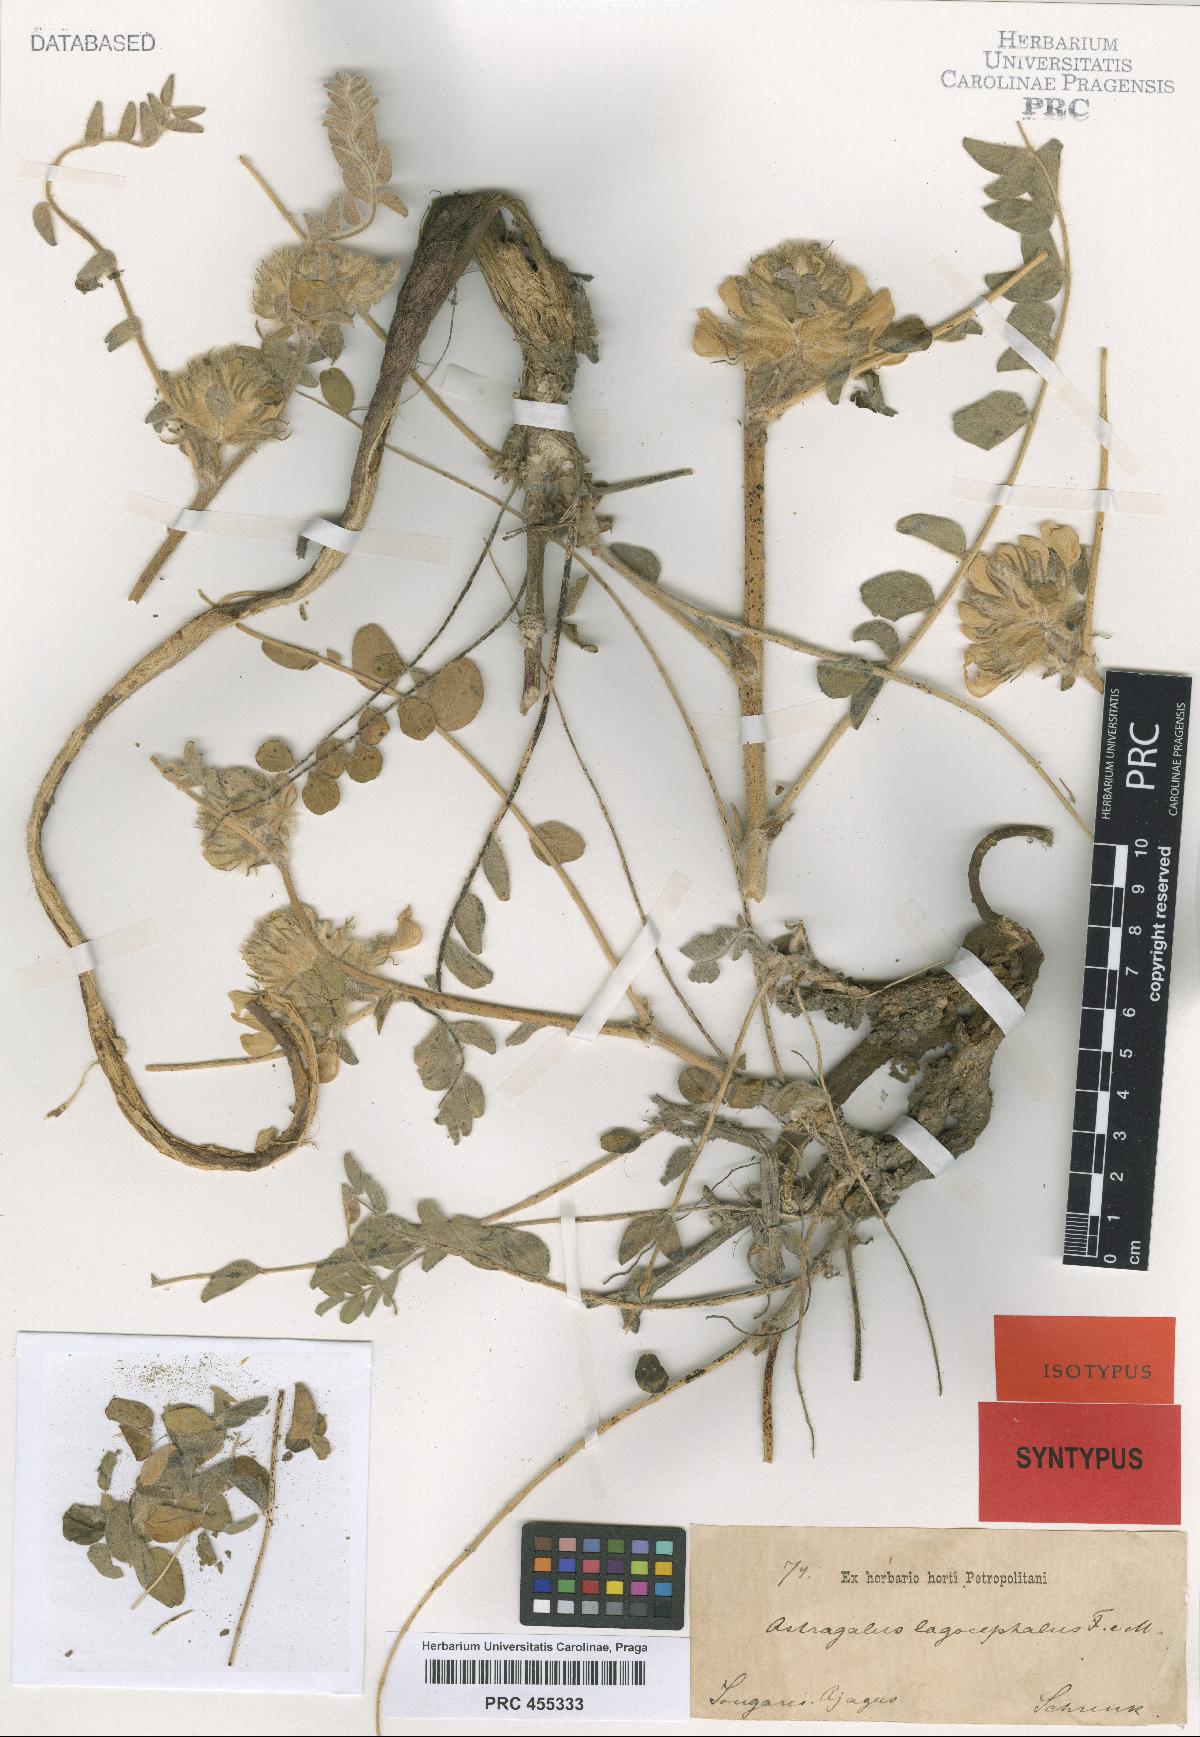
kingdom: Plantae
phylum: Tracheophyta
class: Magnoliopsida
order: Fabales
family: Fabaceae
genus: Astragalus
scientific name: Astragalus vulpinus
